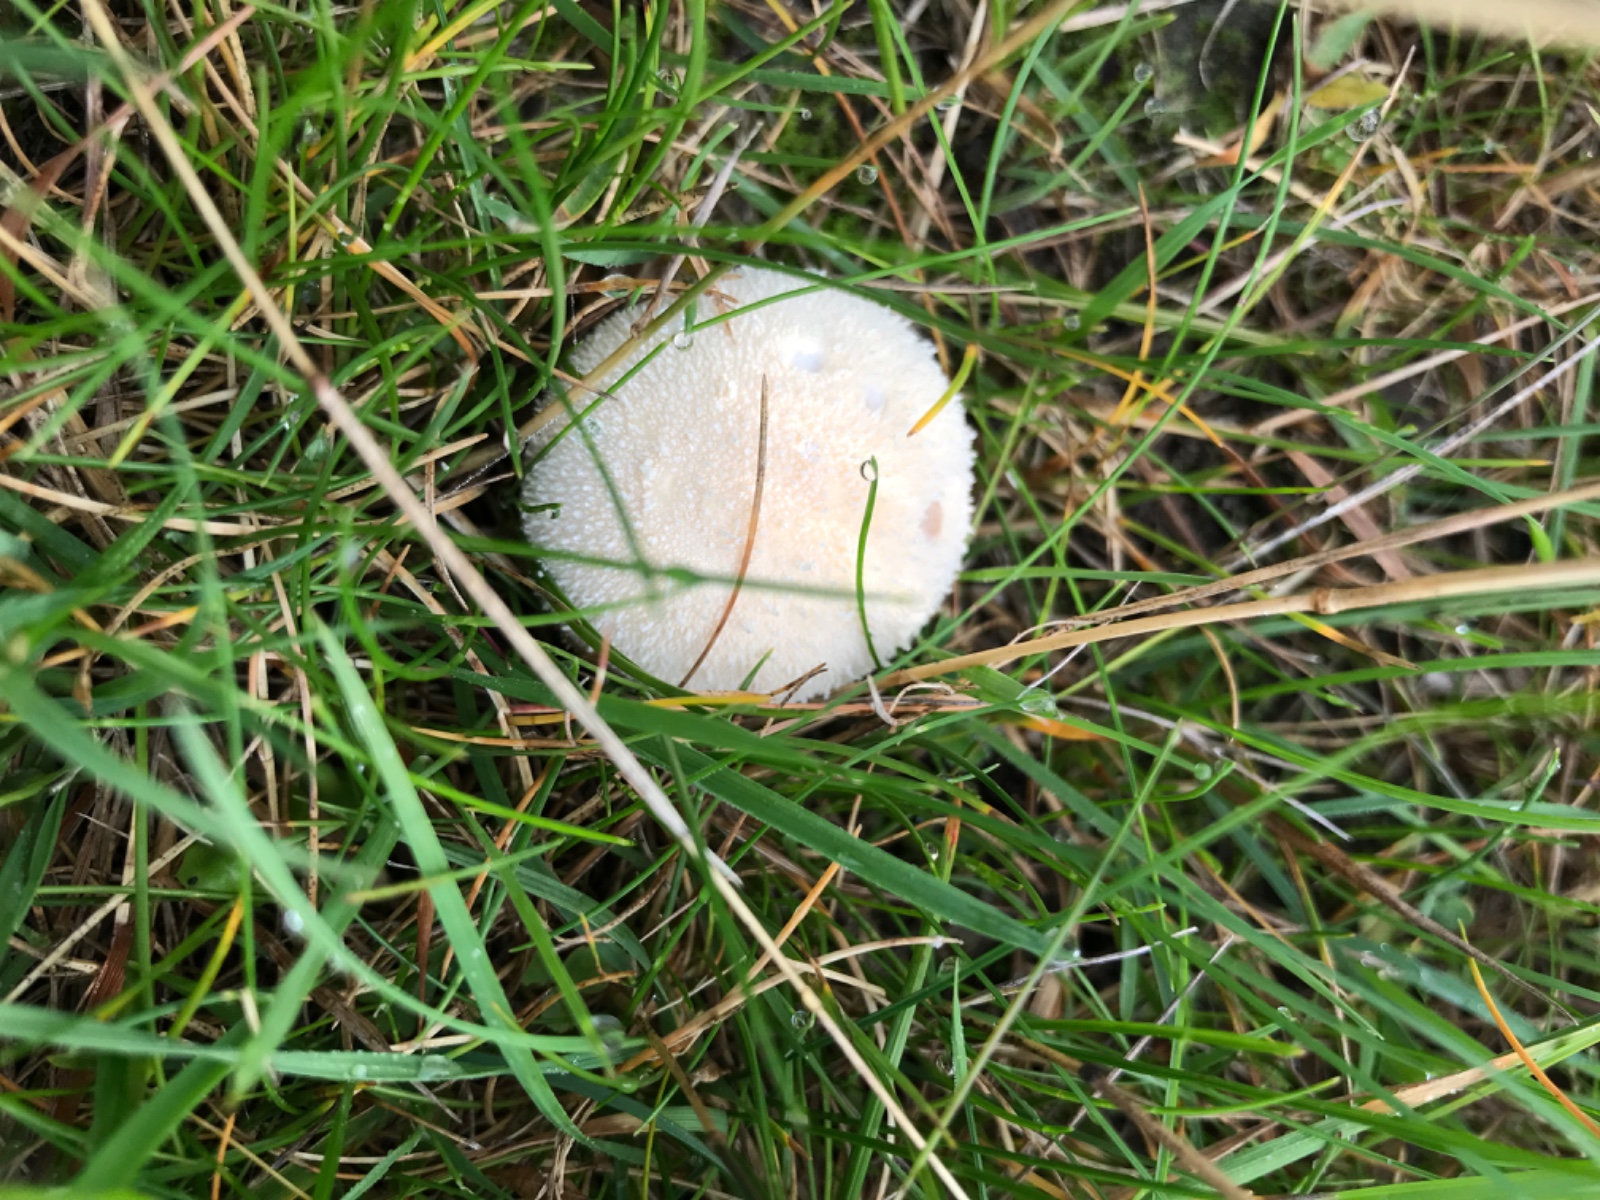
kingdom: Fungi
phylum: Basidiomycota
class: Agaricomycetes
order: Agaricales
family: Lycoperdaceae
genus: Lycoperdon
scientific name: Lycoperdon pratense
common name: flad støvbold
